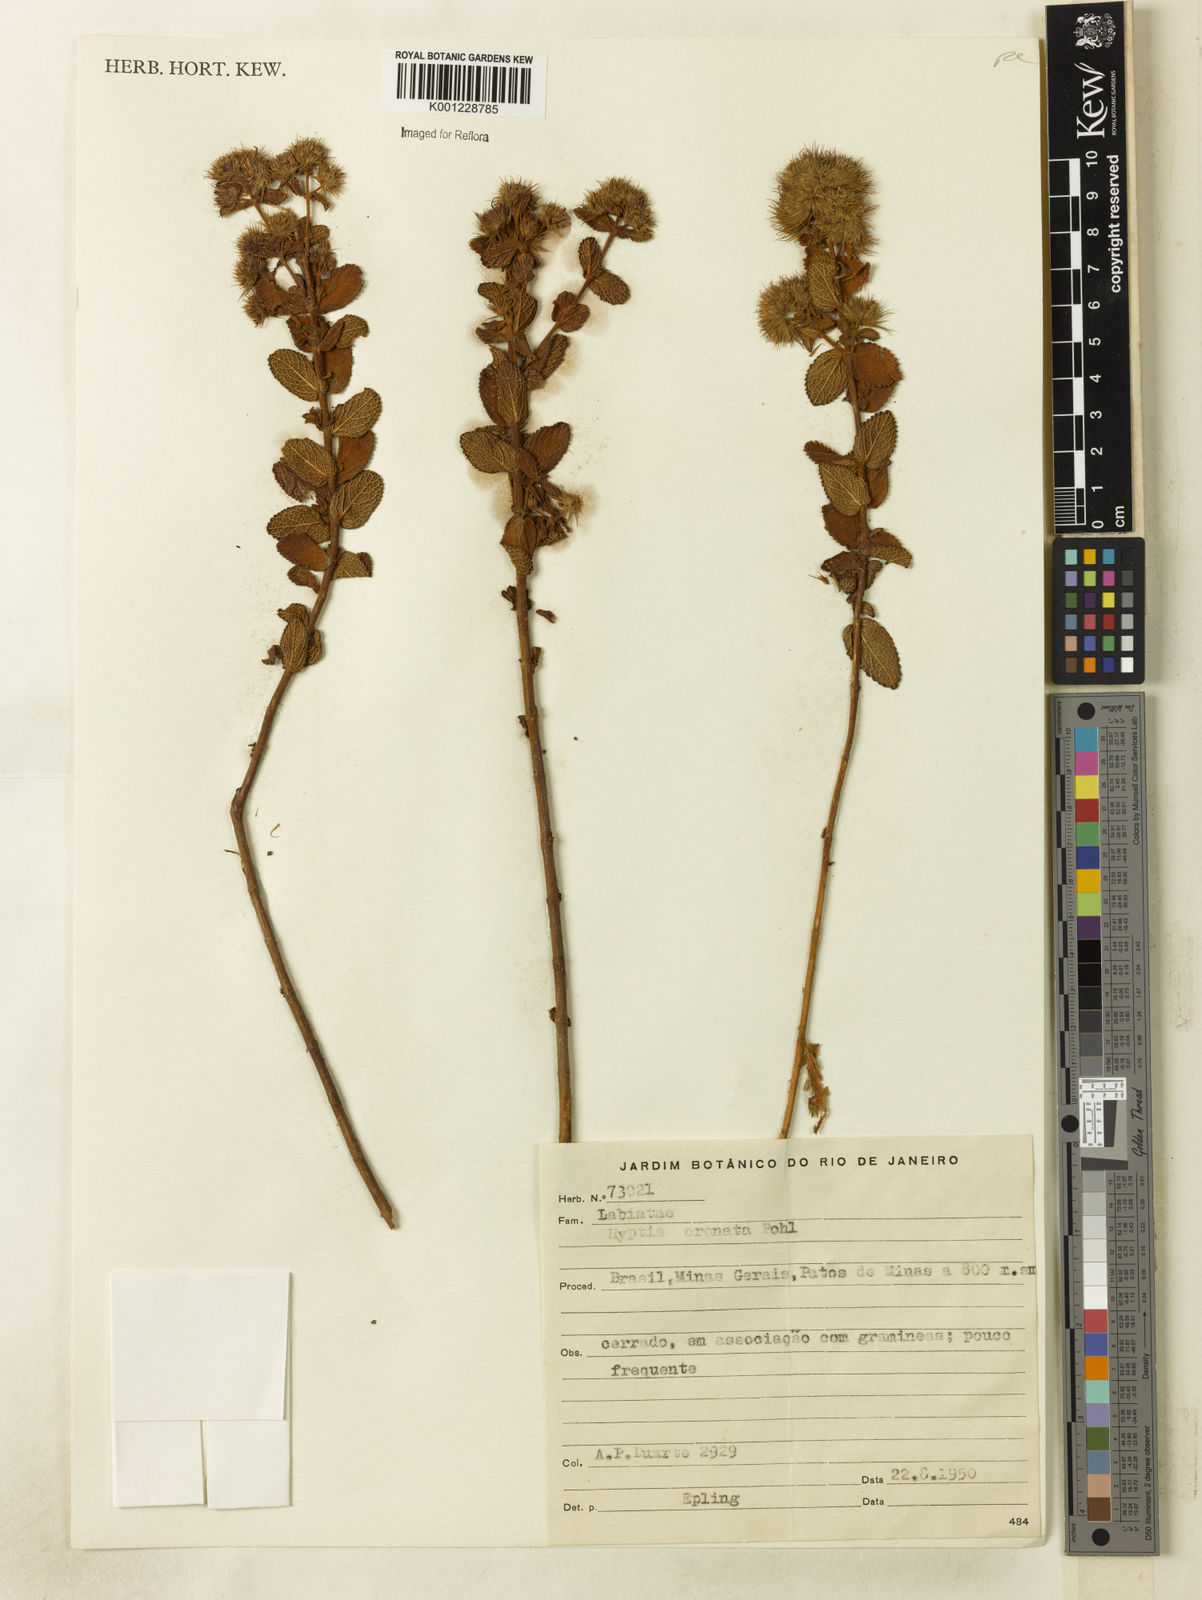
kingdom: Plantae
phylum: Tracheophyta
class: Magnoliopsida
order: Lamiales
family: Lamiaceae
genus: Hyptis
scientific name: Hyptis crenata
